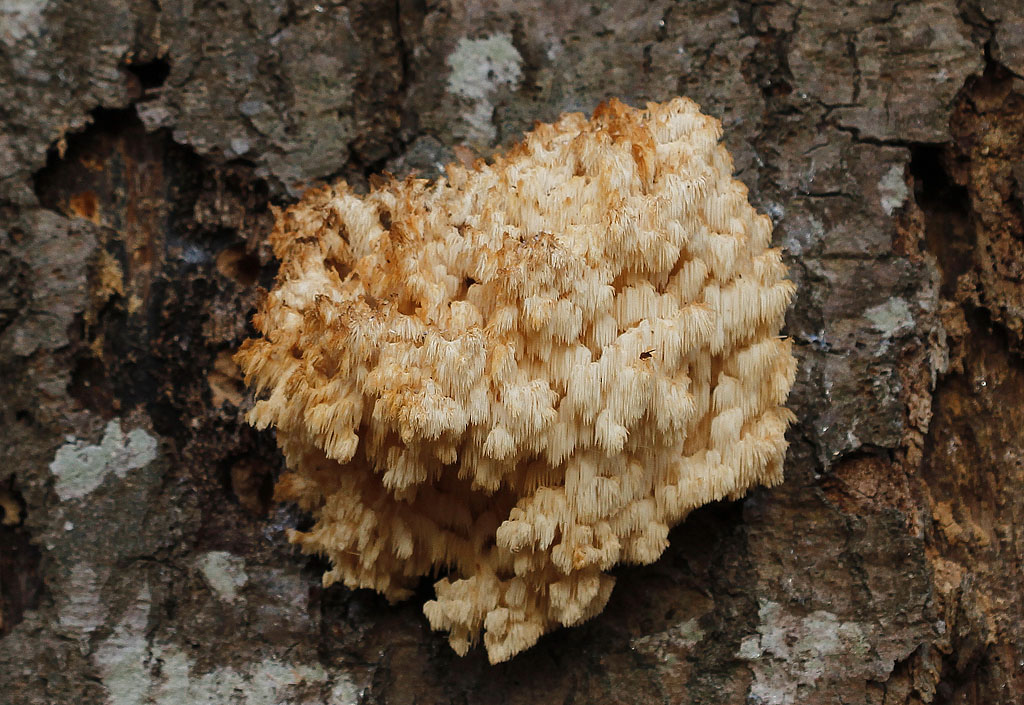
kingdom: Fungi
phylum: Basidiomycota
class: Agaricomycetes
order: Russulales
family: Hericiaceae
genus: Hericium
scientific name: Hericium coralloides
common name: koralpigsvamp
